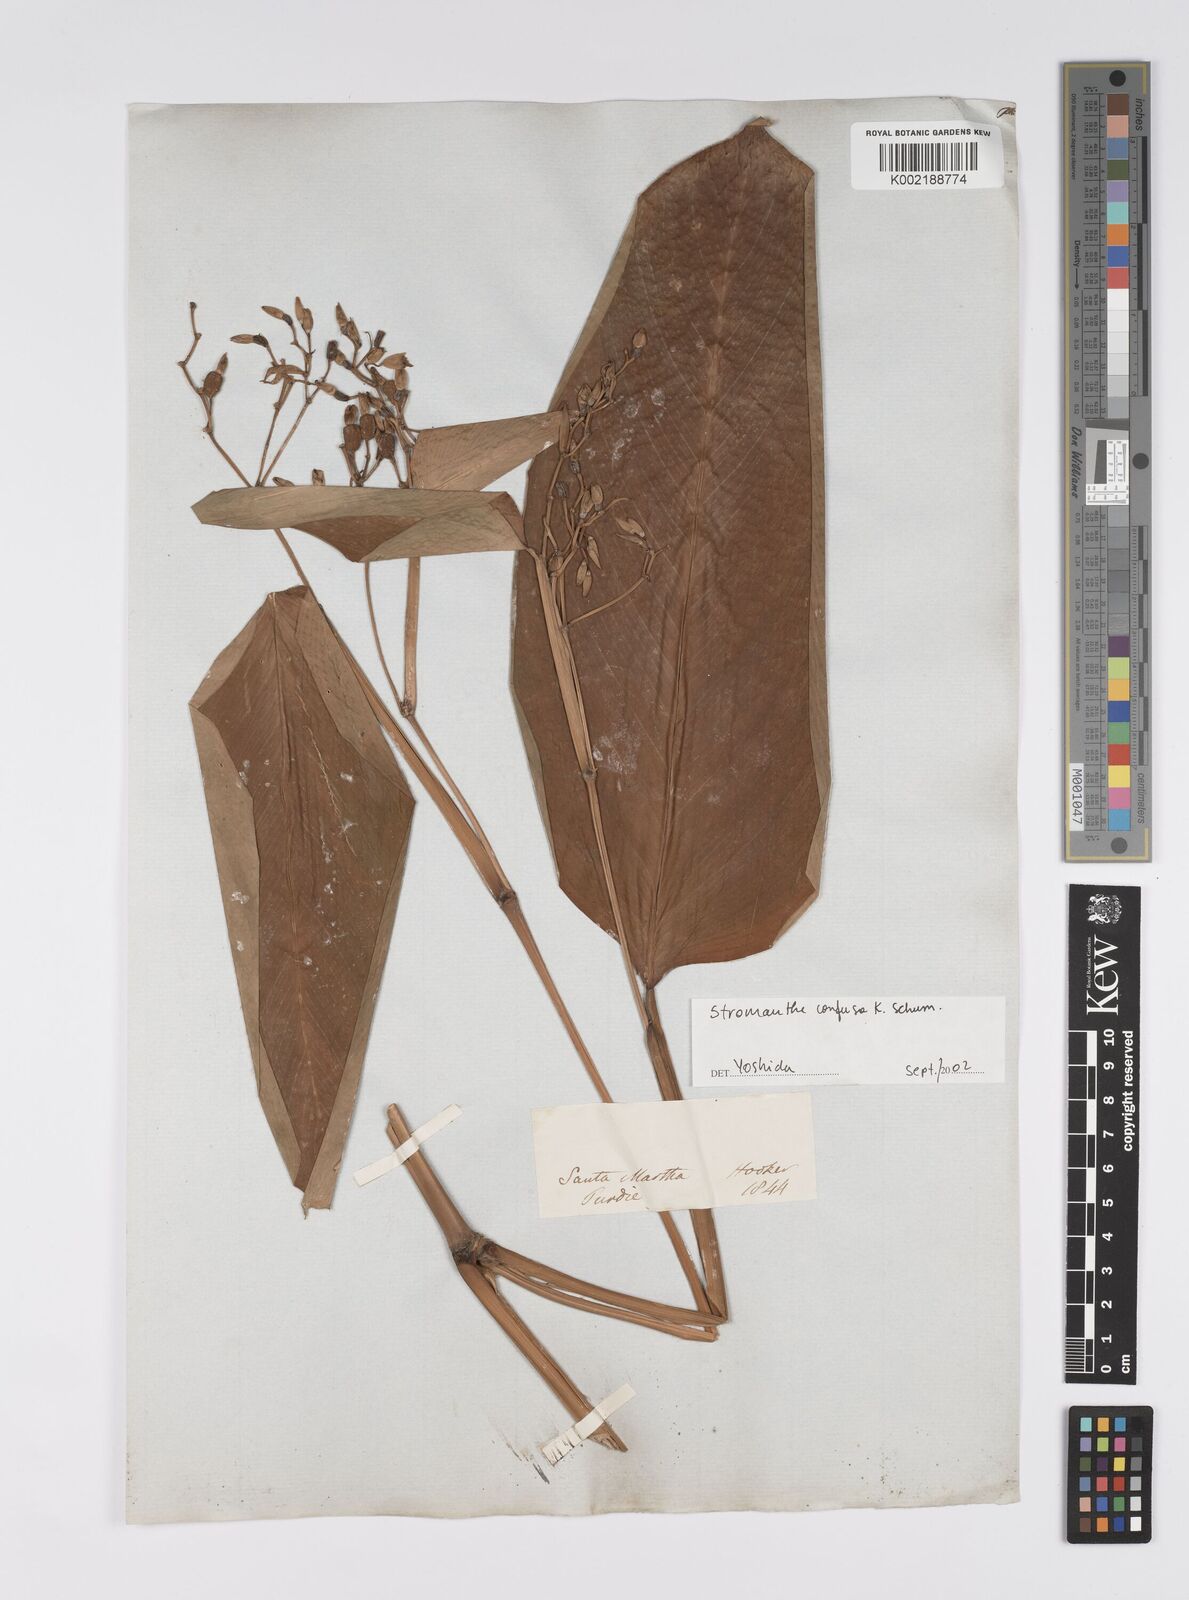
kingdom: Plantae
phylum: Tracheophyta
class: Liliopsida
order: Zingiberales
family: Marantaceae
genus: Stromanthe
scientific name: Stromanthe confusa
